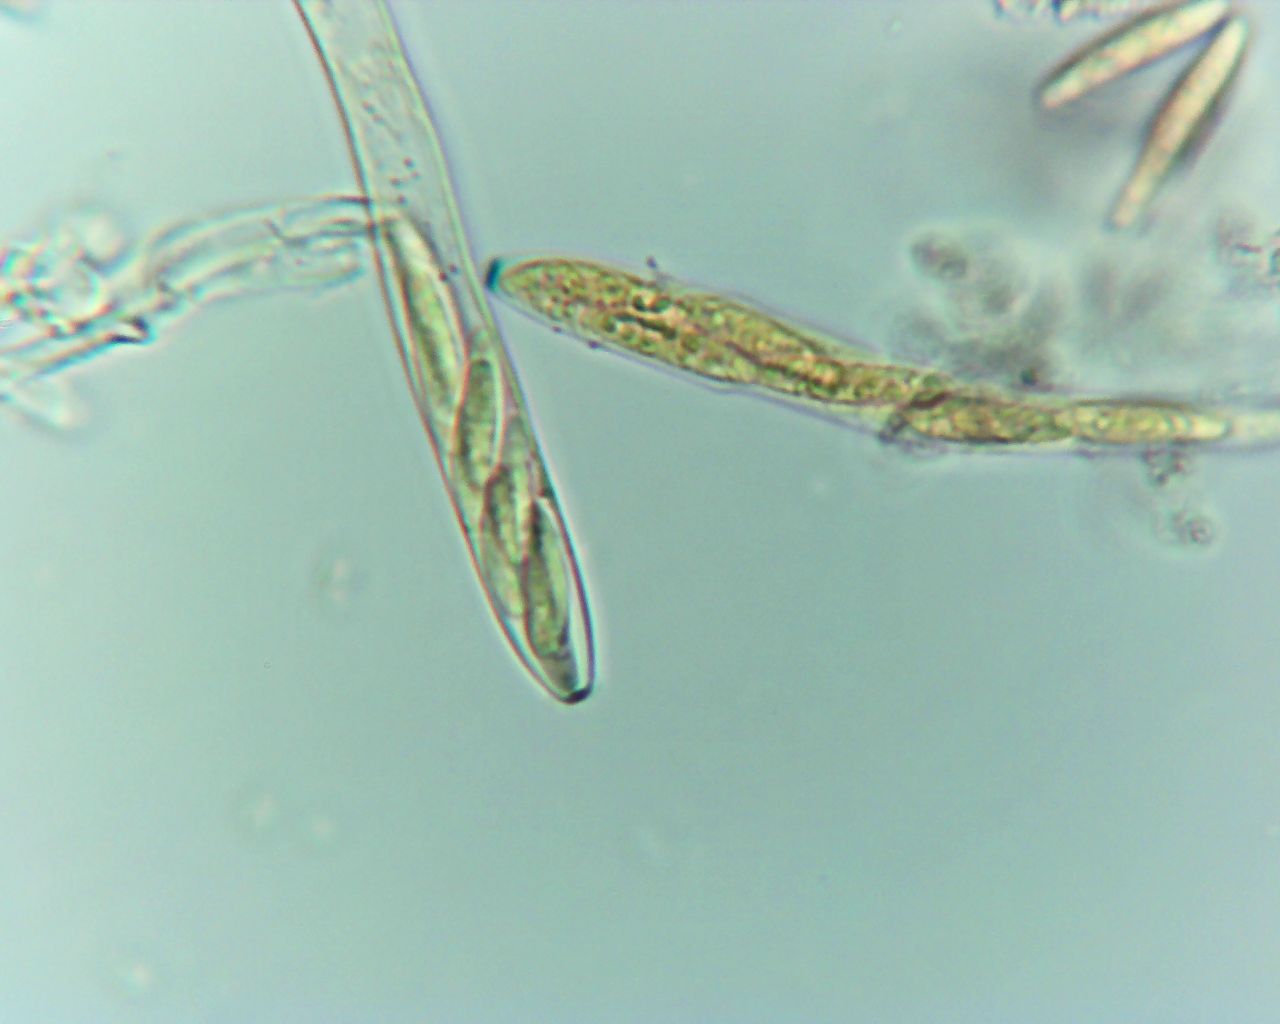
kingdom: Fungi
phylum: Ascomycota
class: Leotiomycetes
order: Helotiales
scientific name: Helotiales
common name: stilkskiveordenen
